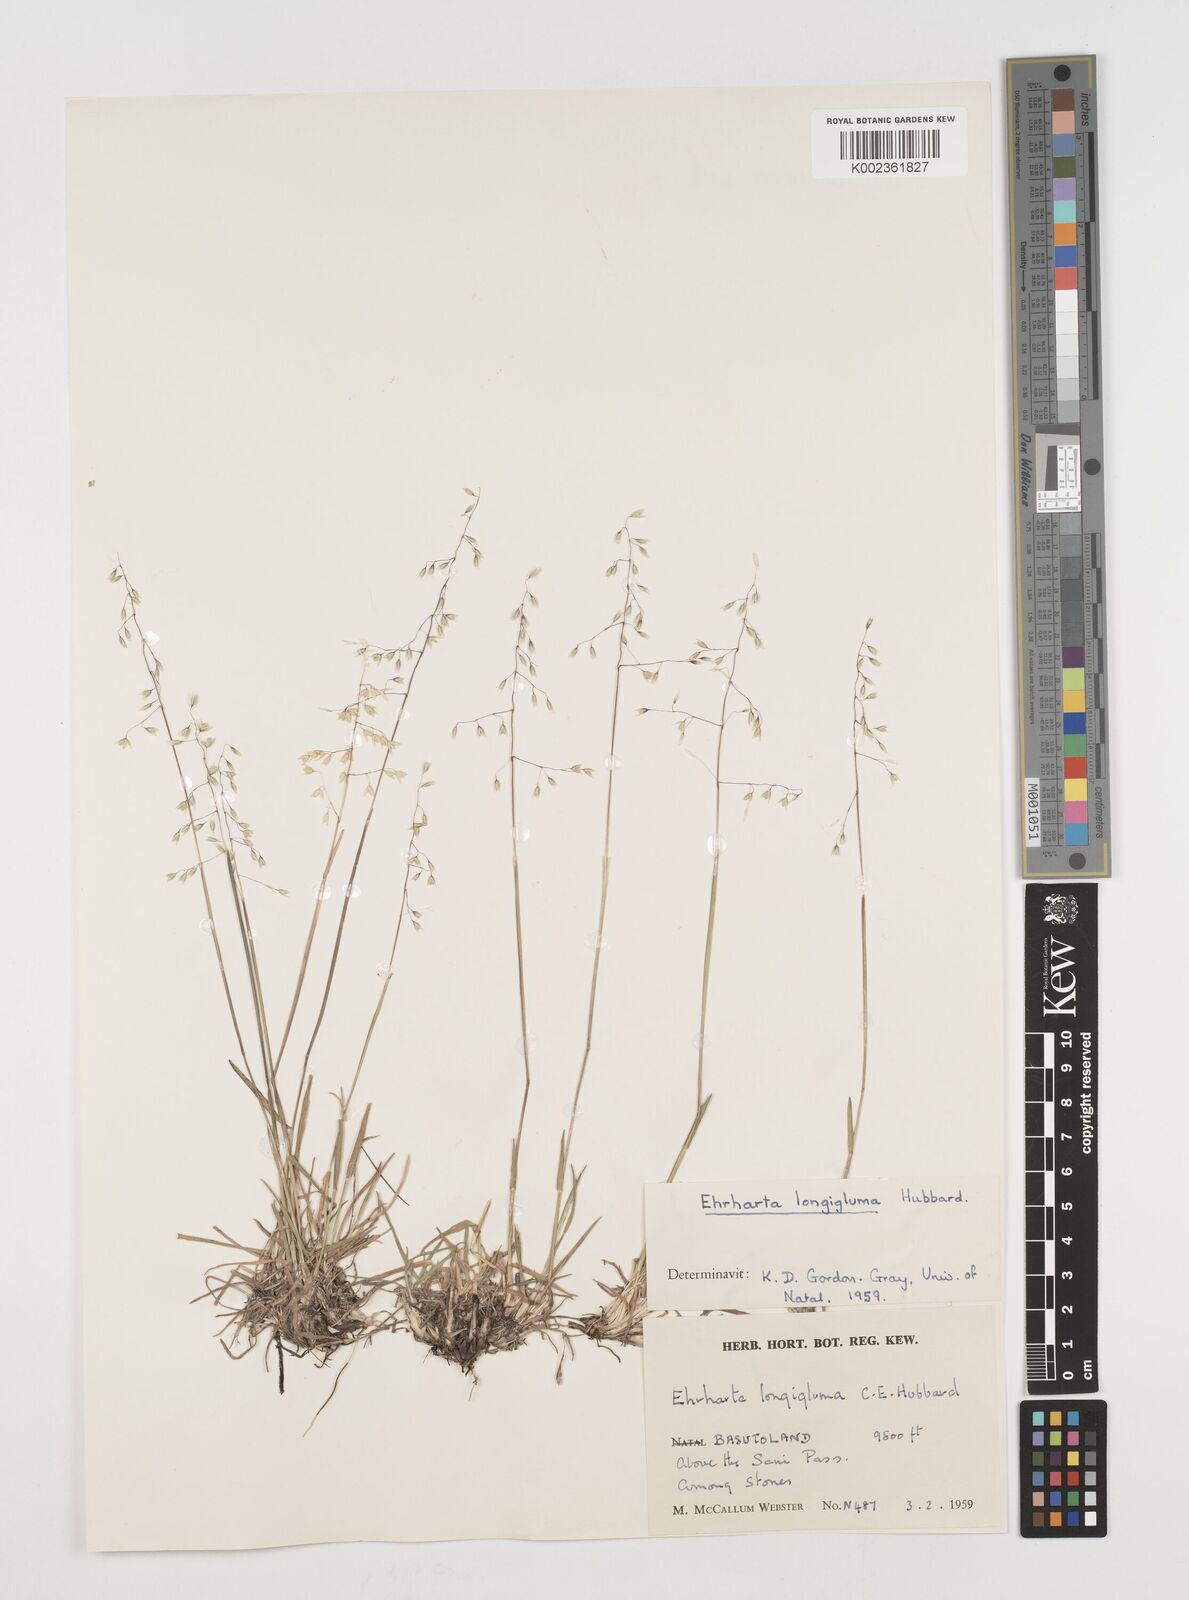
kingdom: Plantae
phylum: Tracheophyta
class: Liliopsida
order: Poales
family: Poaceae
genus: Ehrharta
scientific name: Ehrharta longigluma
